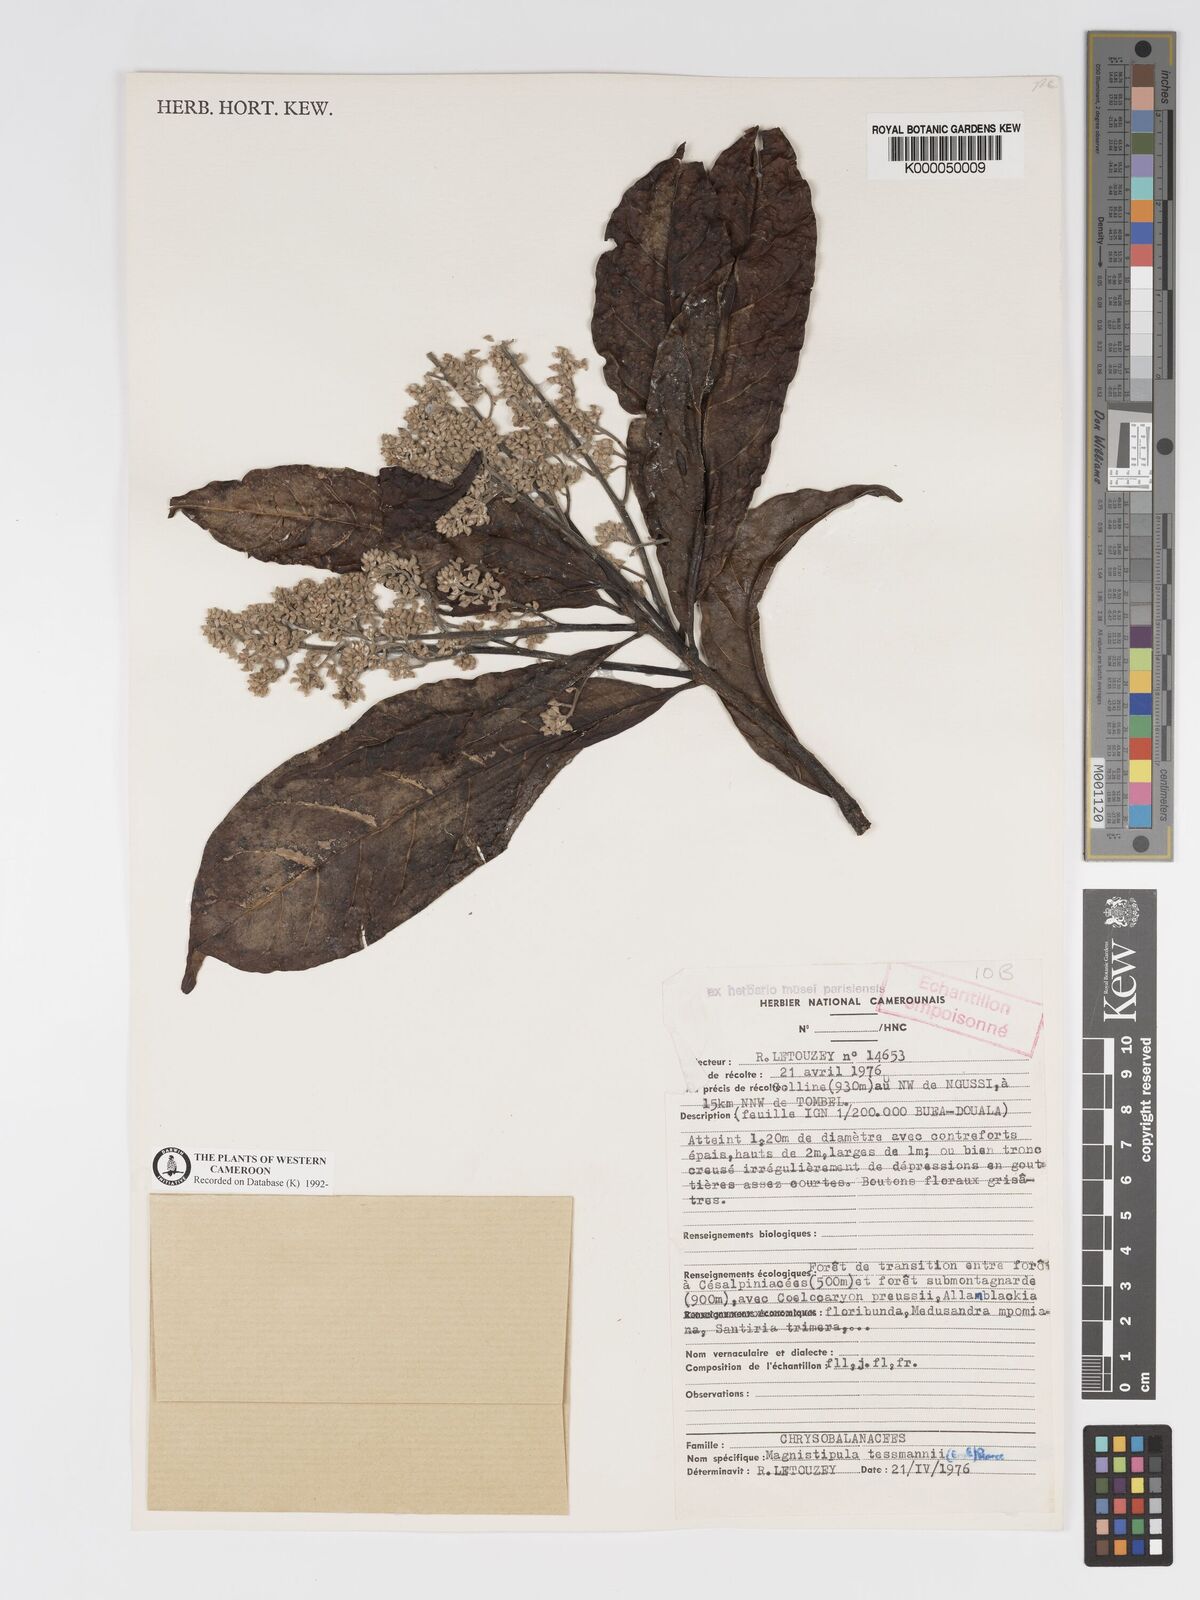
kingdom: Plantae
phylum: Tracheophyta
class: Magnoliopsida
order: Malpighiales
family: Chrysobalanaceae
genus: Magnistipula
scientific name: Magnistipula tessmannii
